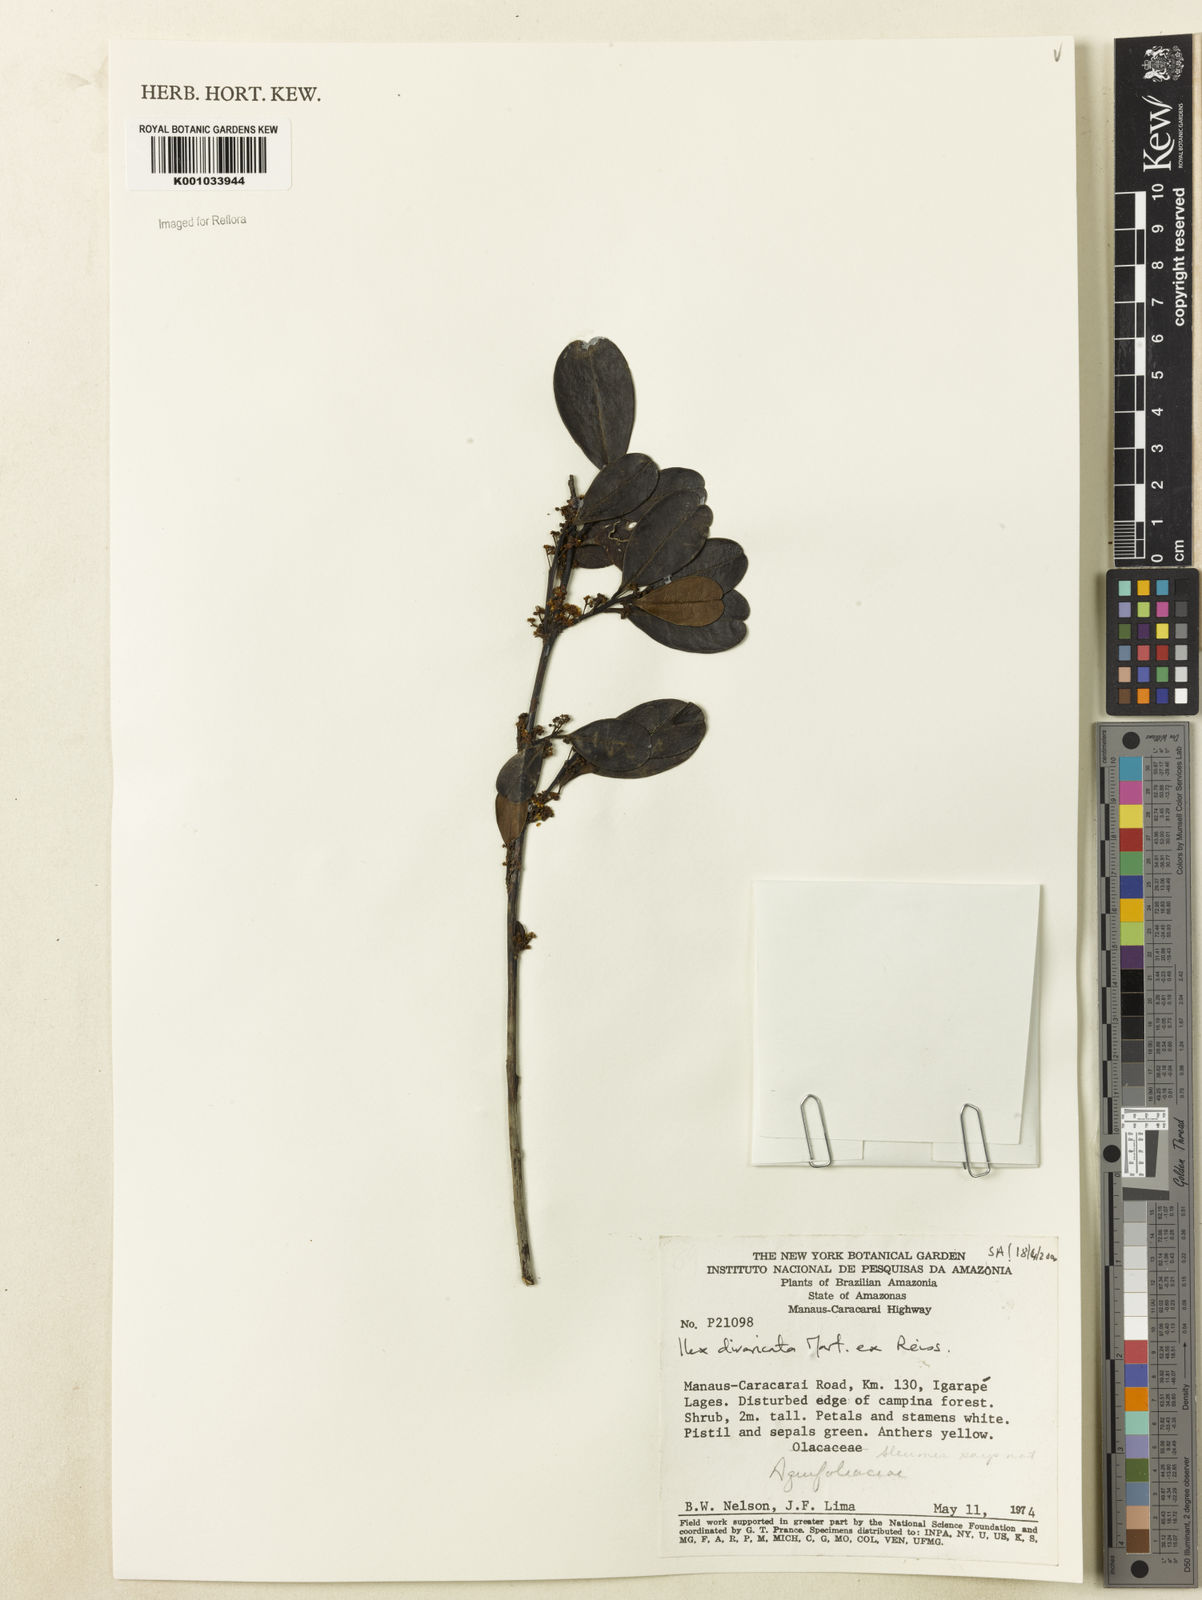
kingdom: Plantae
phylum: Tracheophyta
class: Magnoliopsida
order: Aquifoliales
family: Aquifoliaceae
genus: Ilex
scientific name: Ilex divaricata
